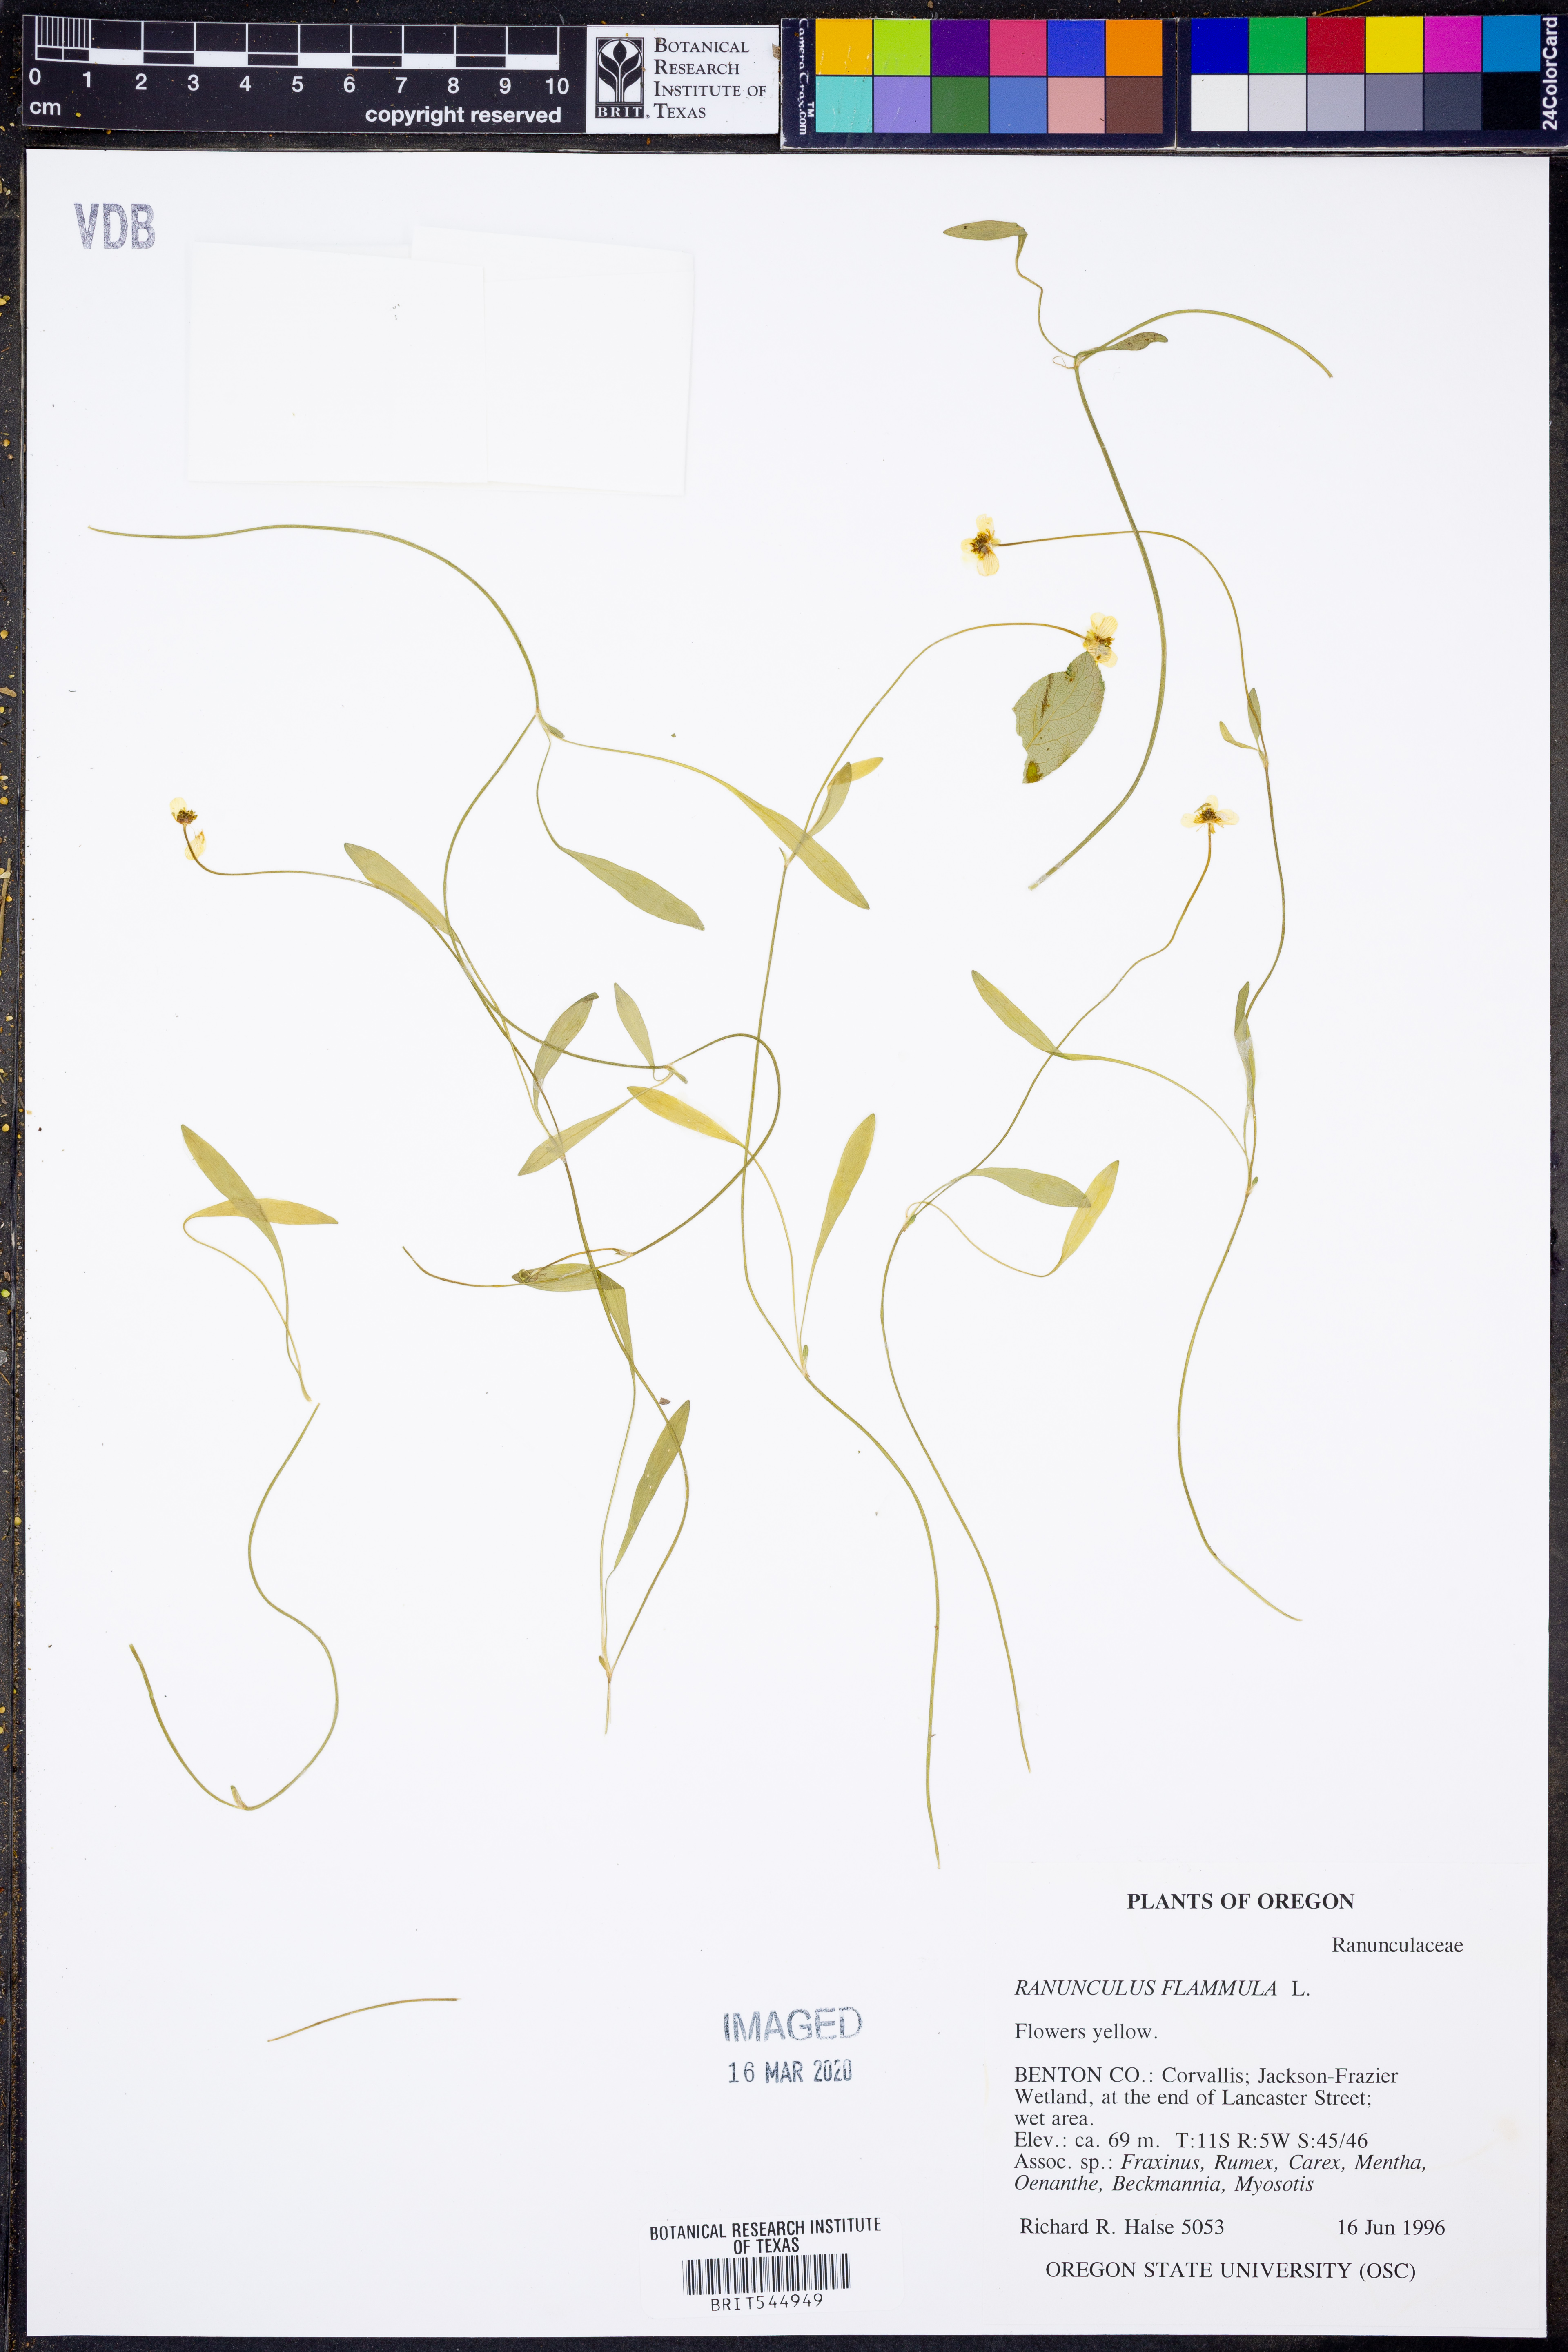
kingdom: Plantae
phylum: Tracheophyta
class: Magnoliopsida
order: Ranunculales
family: Ranunculaceae
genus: Ranunculus
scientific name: Ranunculus flammula
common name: Lesser spearwort
